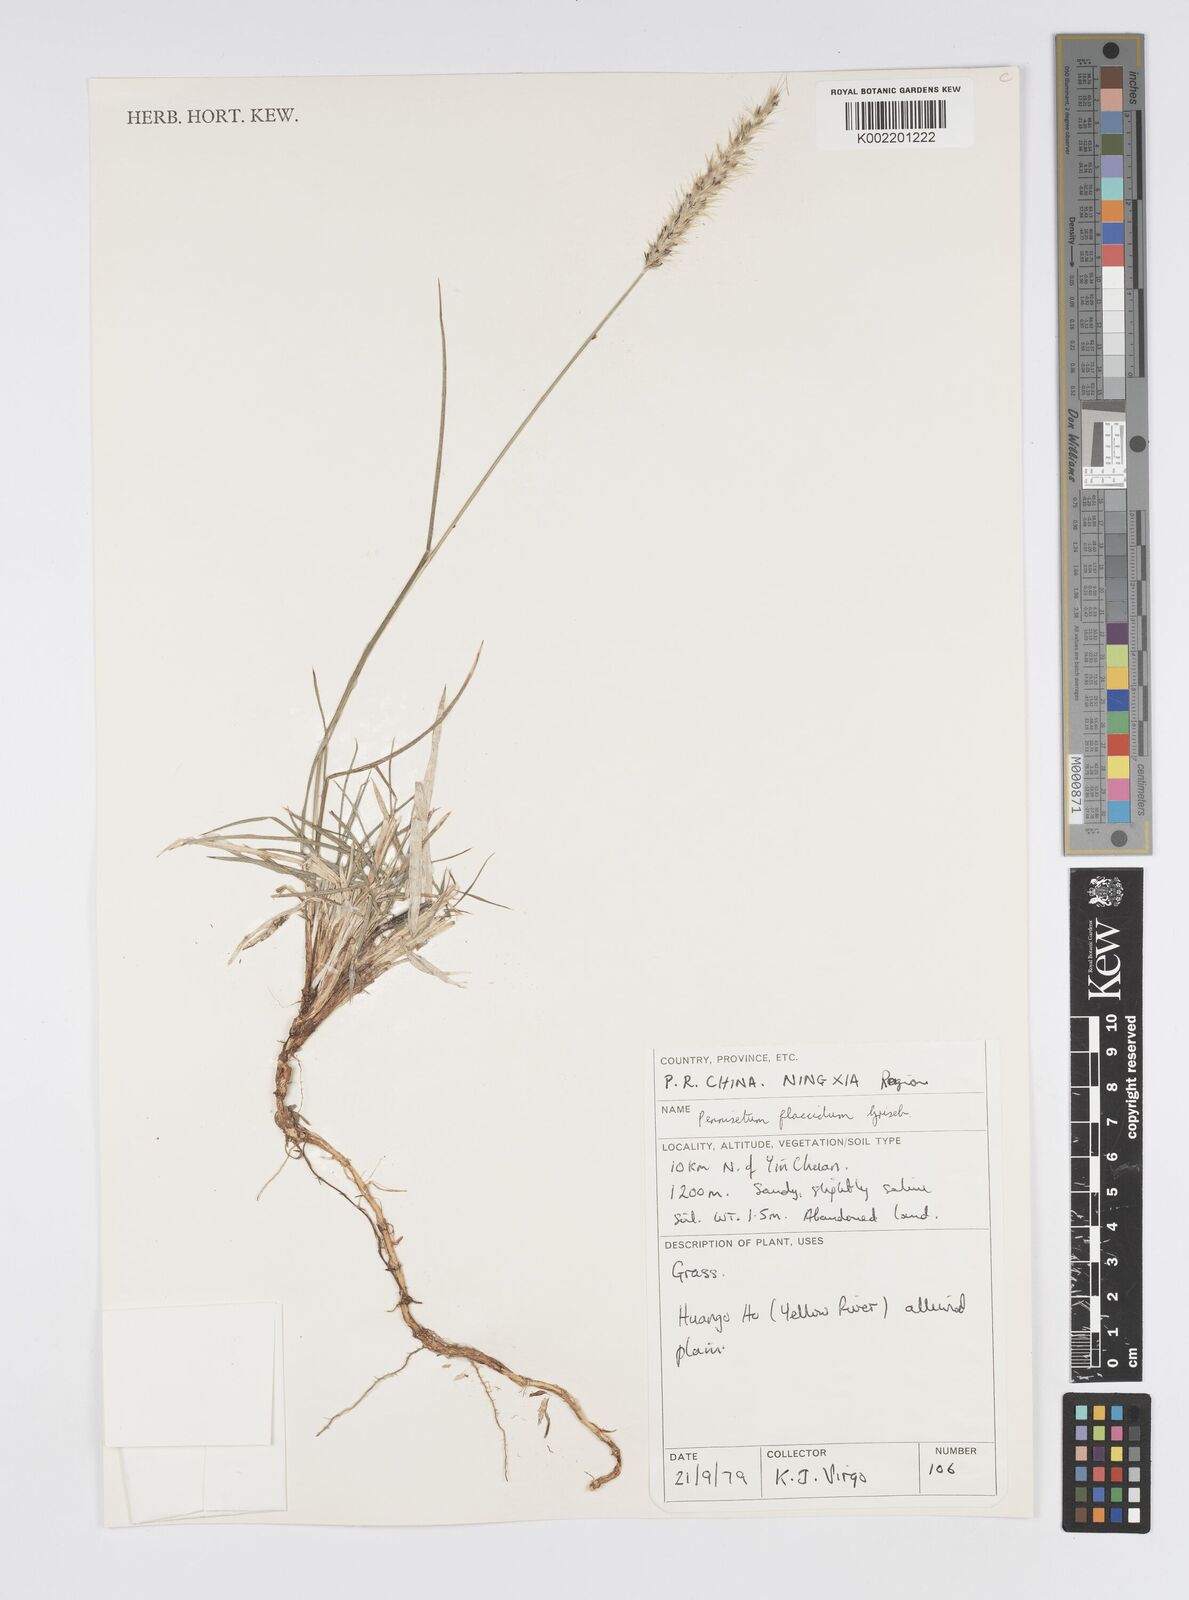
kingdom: Plantae
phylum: Tracheophyta
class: Liliopsida
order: Poales
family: Poaceae
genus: Cenchrus
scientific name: Cenchrus flaccidus
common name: Flaccid grass
